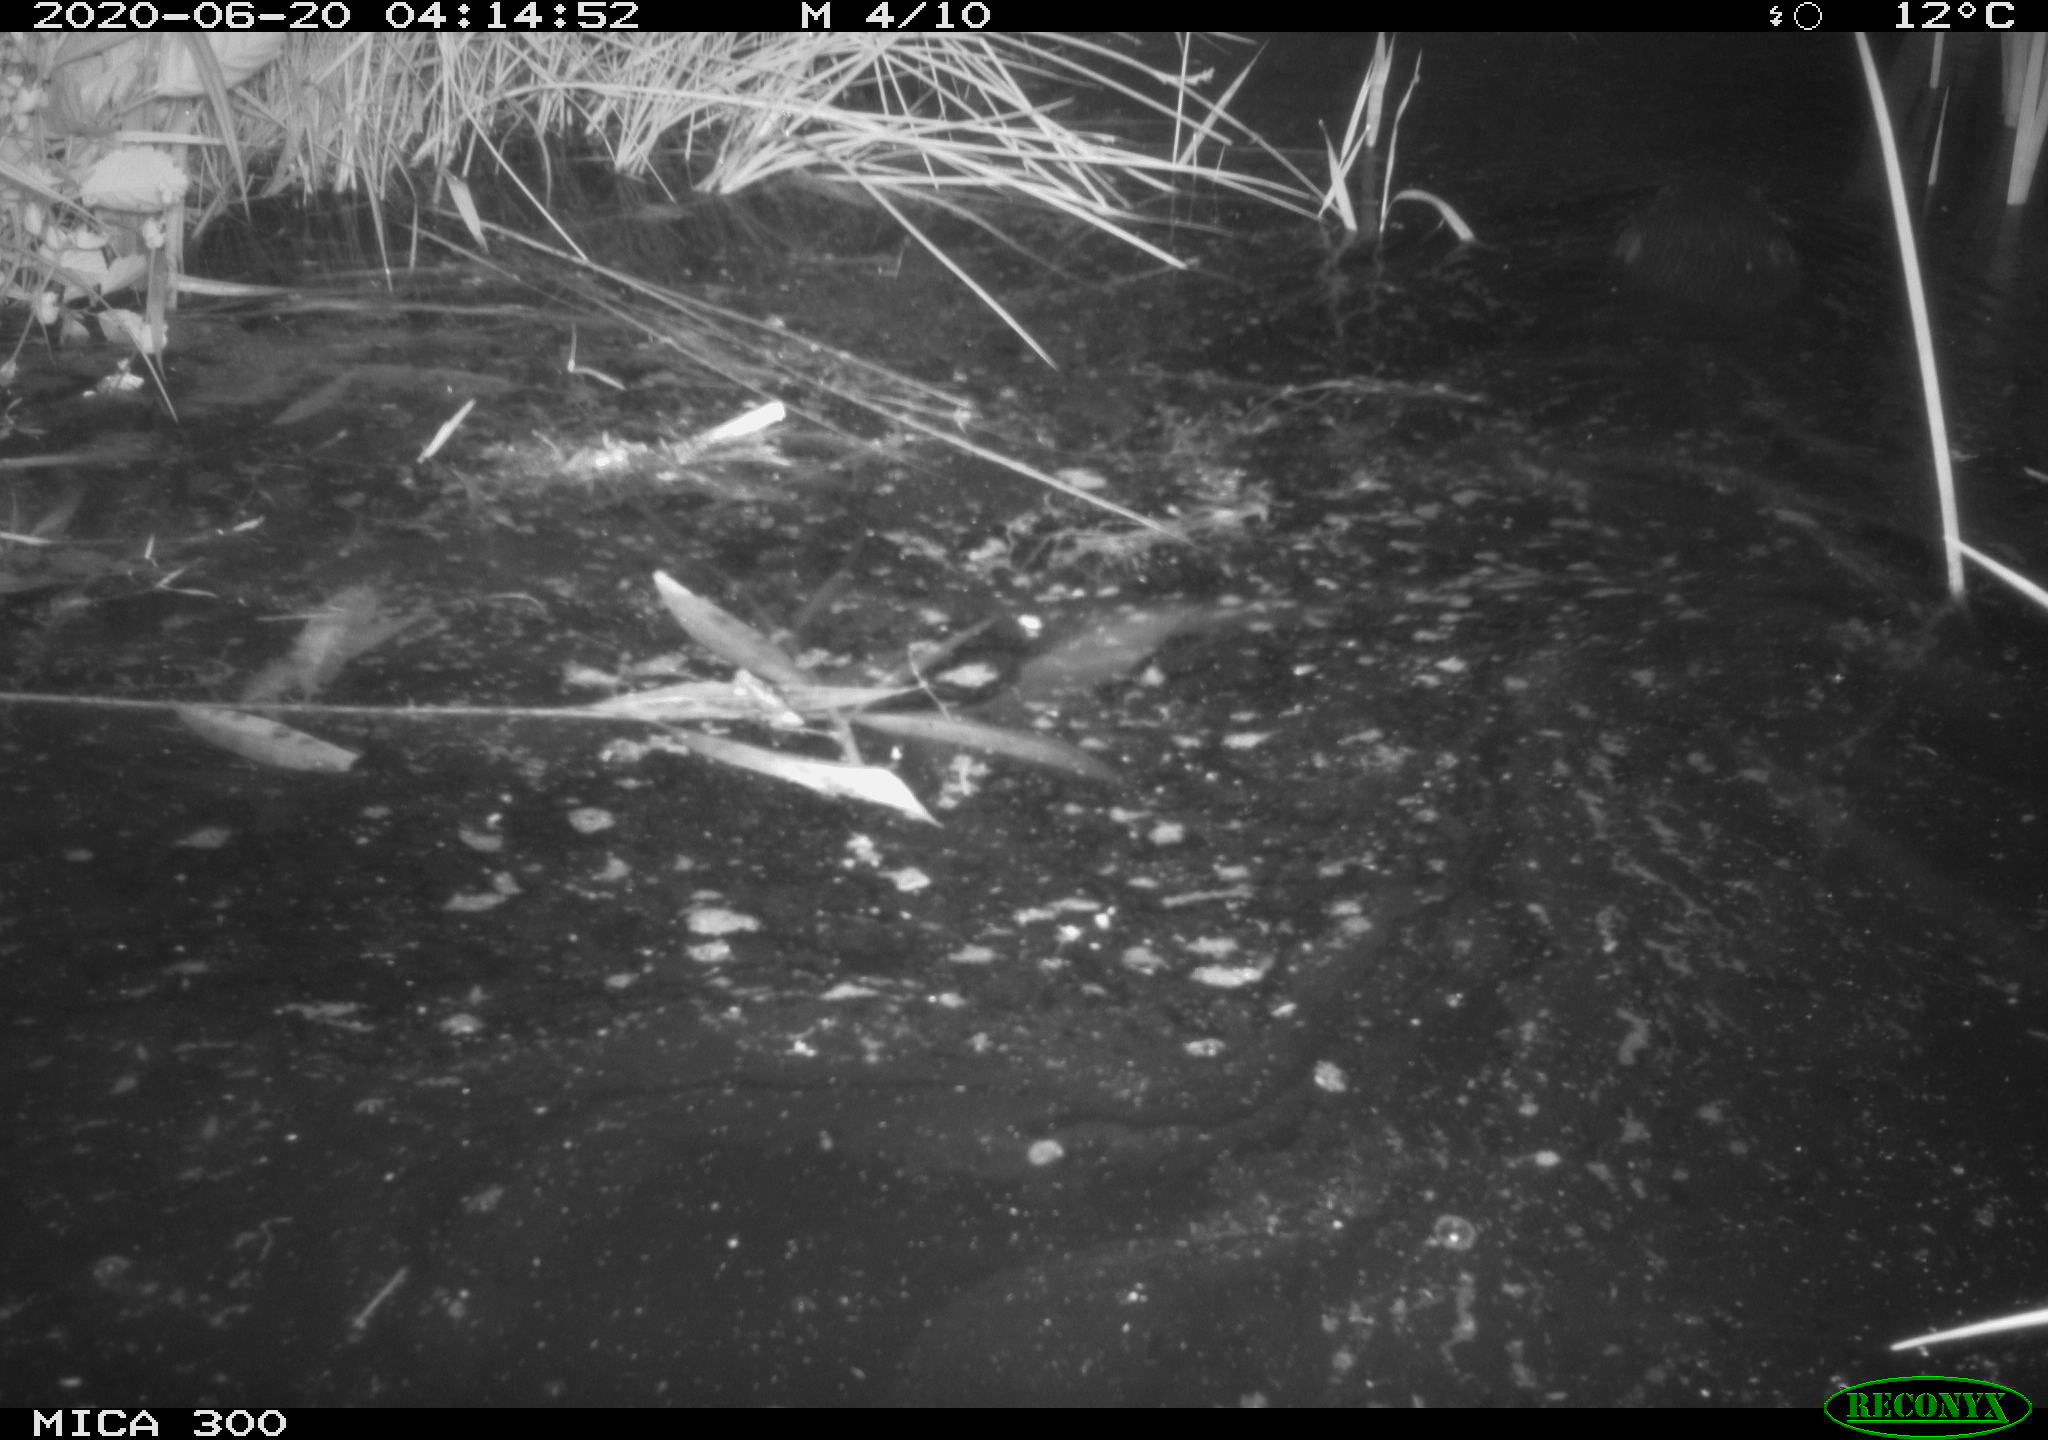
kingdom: Animalia
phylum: Chordata
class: Mammalia
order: Rodentia
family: Castoridae
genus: Castor
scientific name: Castor fiber
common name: Eurasian beaver
